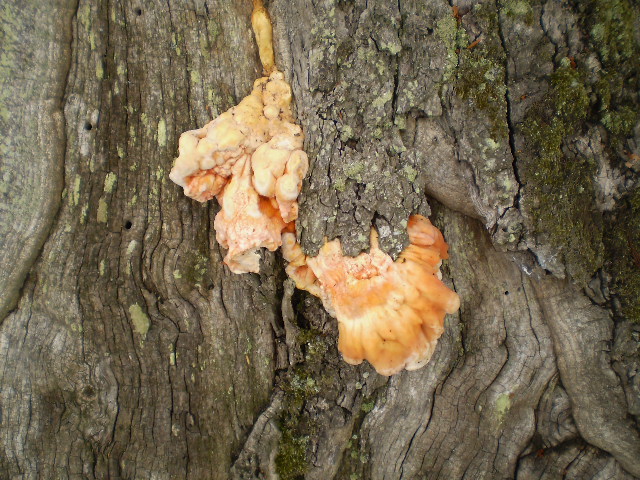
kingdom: Fungi
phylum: Basidiomycota
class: Agaricomycetes
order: Polyporales
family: Laetiporaceae
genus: Laetiporus
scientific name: Laetiporus sulphureus
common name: svovlporesvamp
